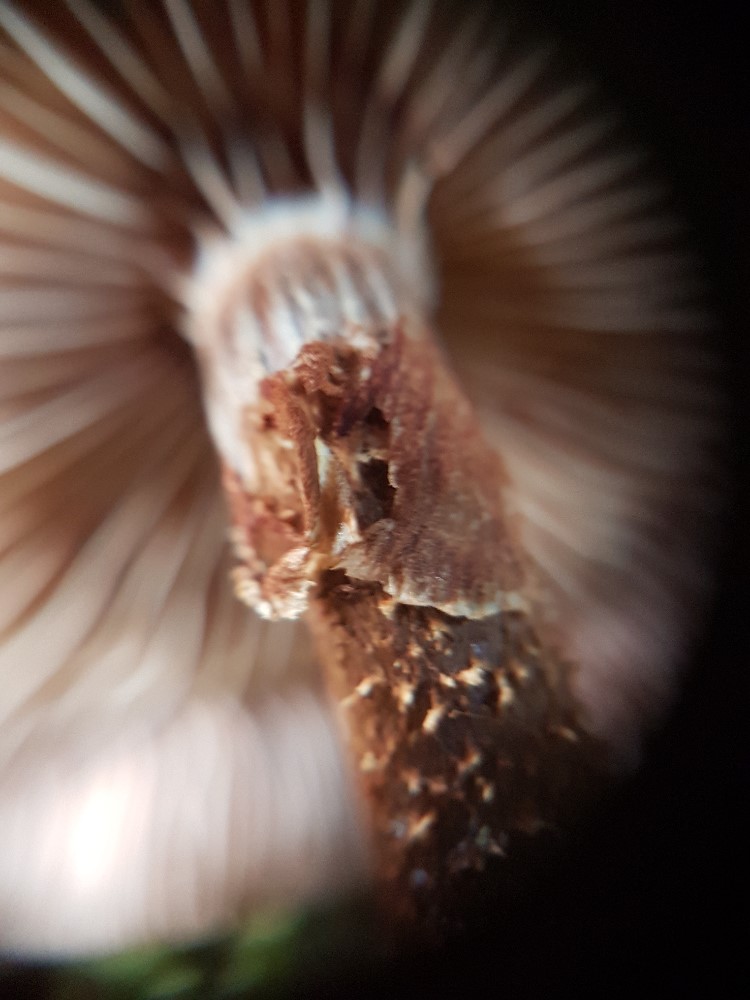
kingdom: Fungi
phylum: Basidiomycota
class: Agaricomycetes
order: Agaricales
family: Strophariaceae
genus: Kuehneromyces
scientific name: Kuehneromyces mutabilis
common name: foranderlig skælhat
